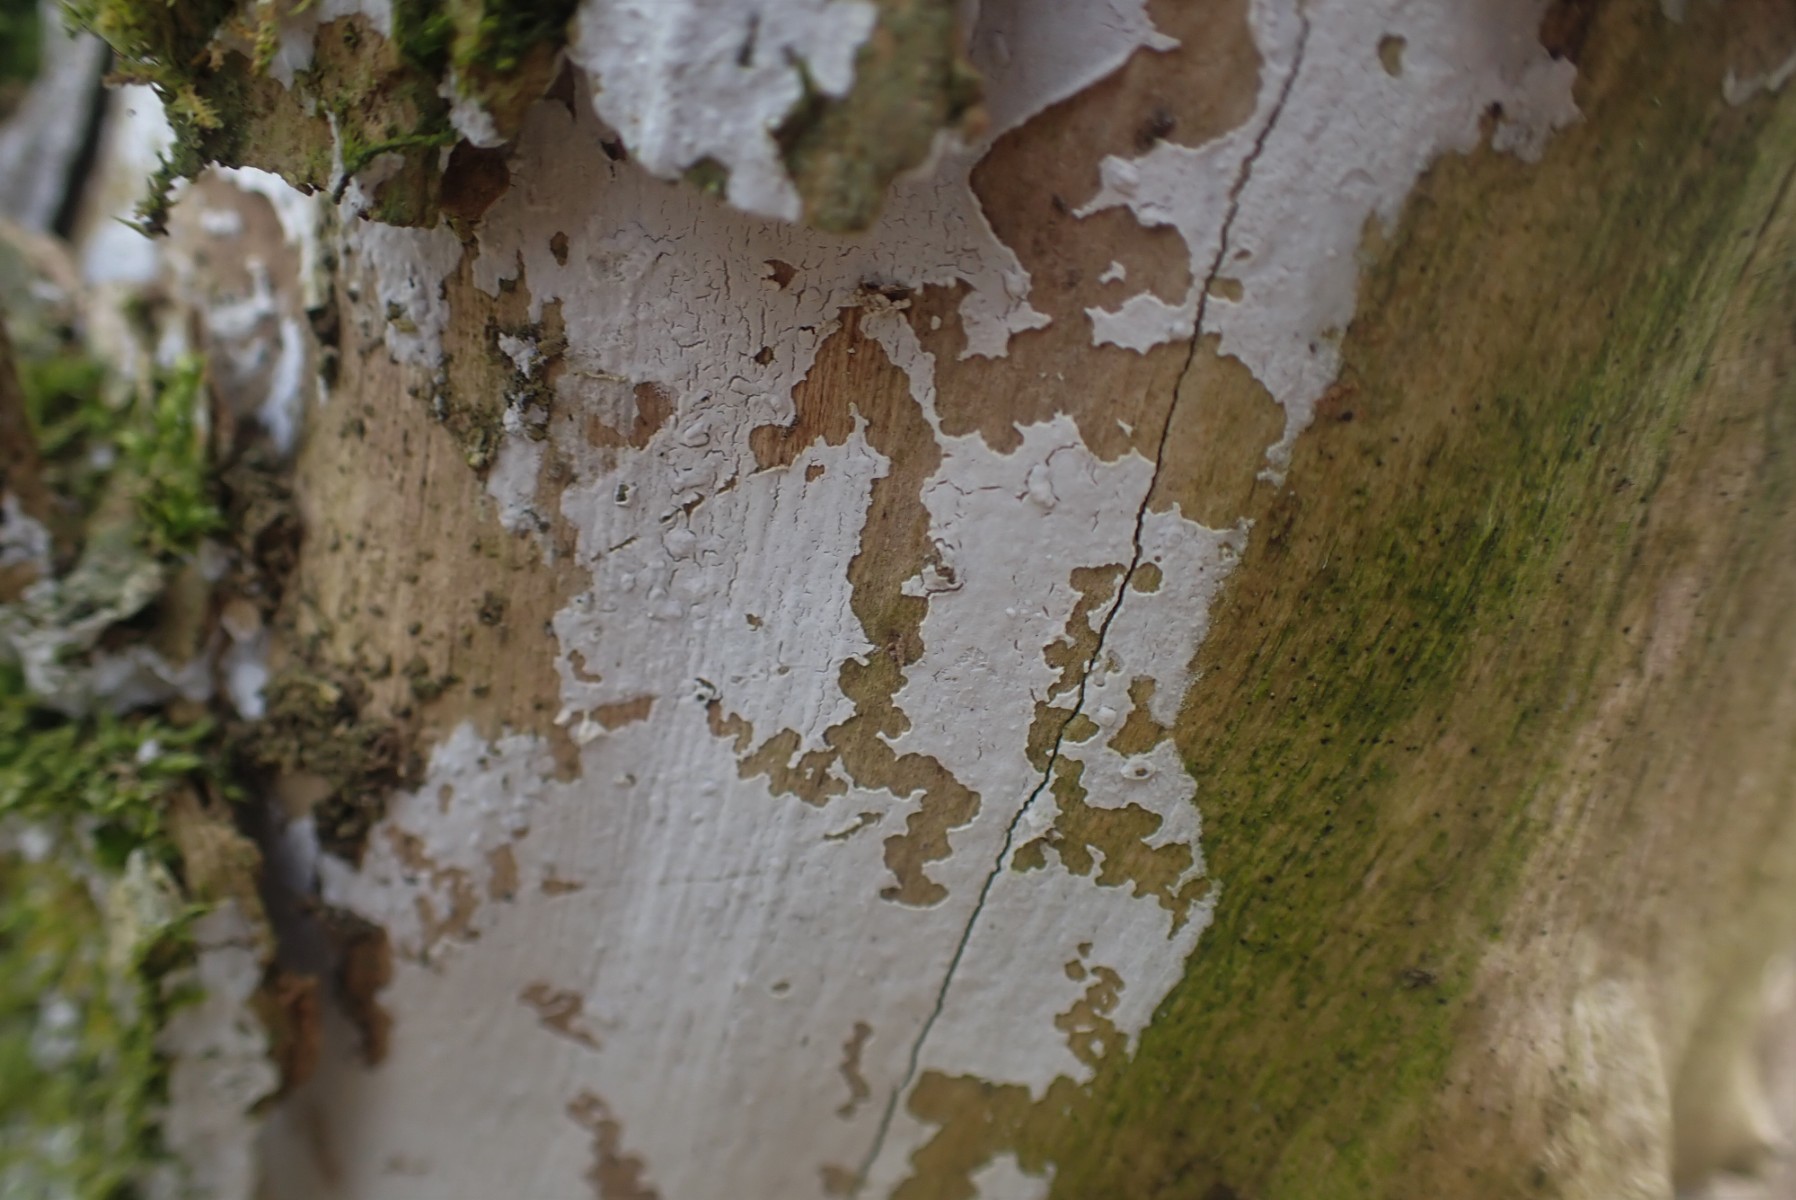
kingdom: Fungi
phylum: Basidiomycota
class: Agaricomycetes
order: Corticiales
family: Corticiaceae
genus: Lyomyces
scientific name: Lyomyces sambuci
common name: almindelig hyldehinde
